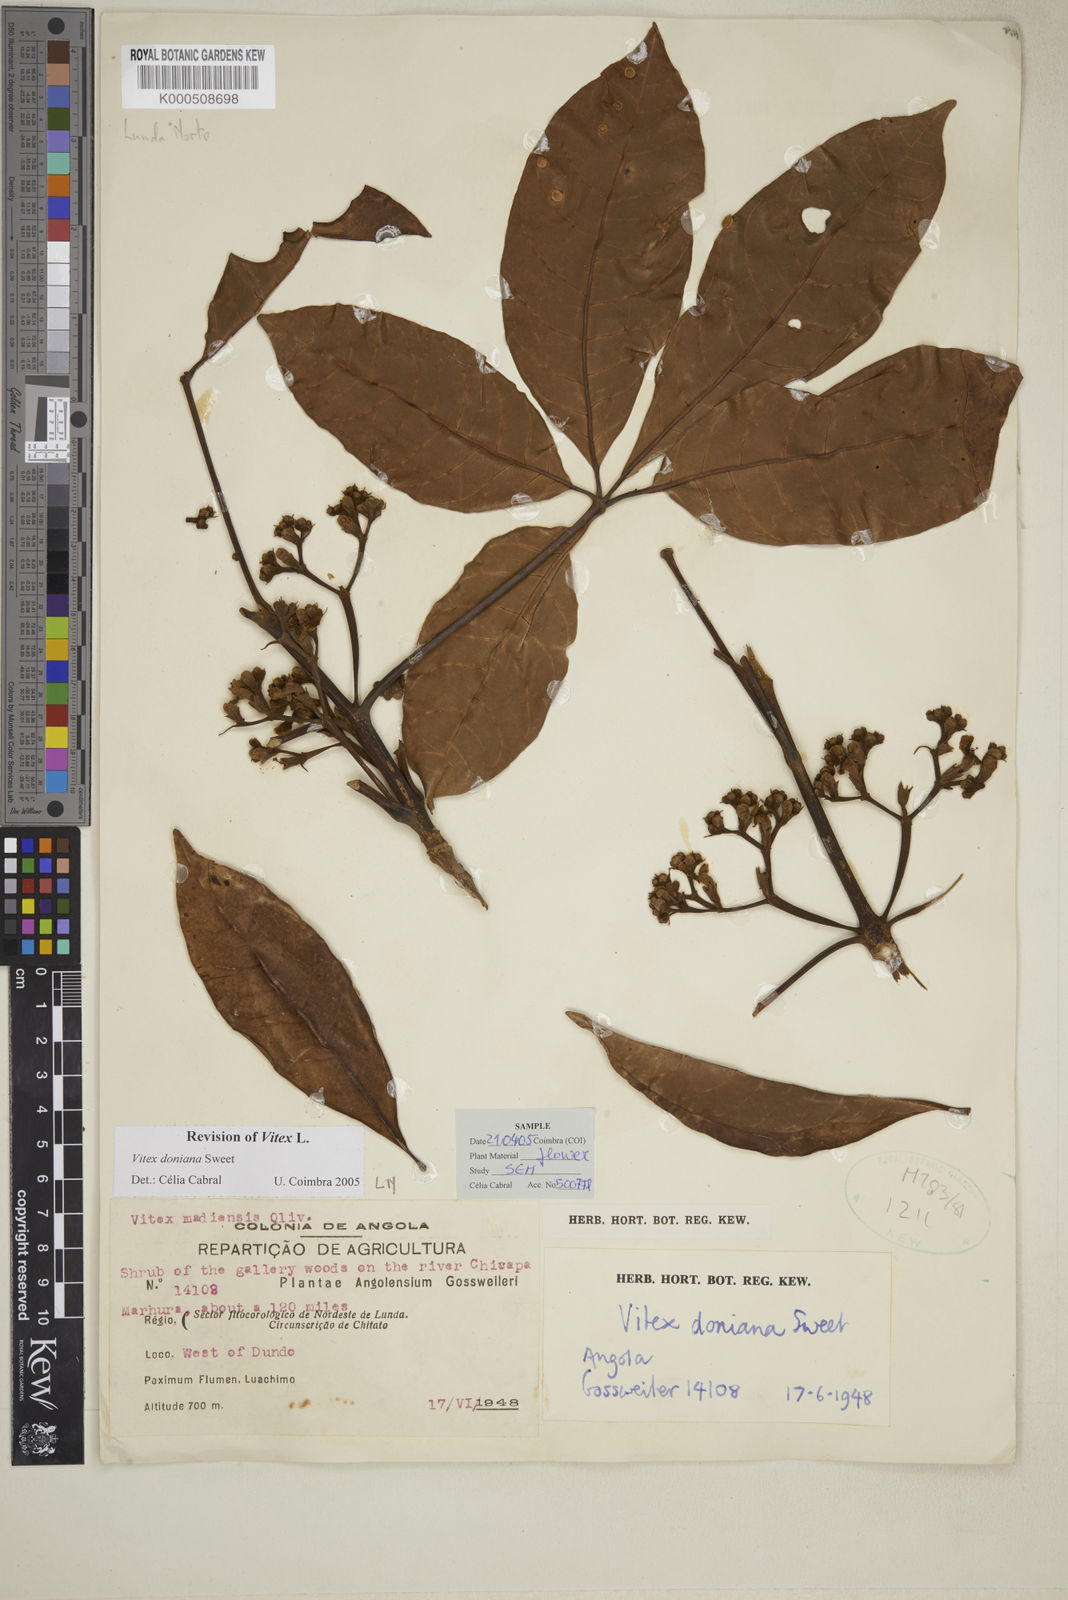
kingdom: Plantae
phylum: Tracheophyta
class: Magnoliopsida
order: Lamiales
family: Lamiaceae
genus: Vitex
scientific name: Vitex doniana
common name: Black plum
